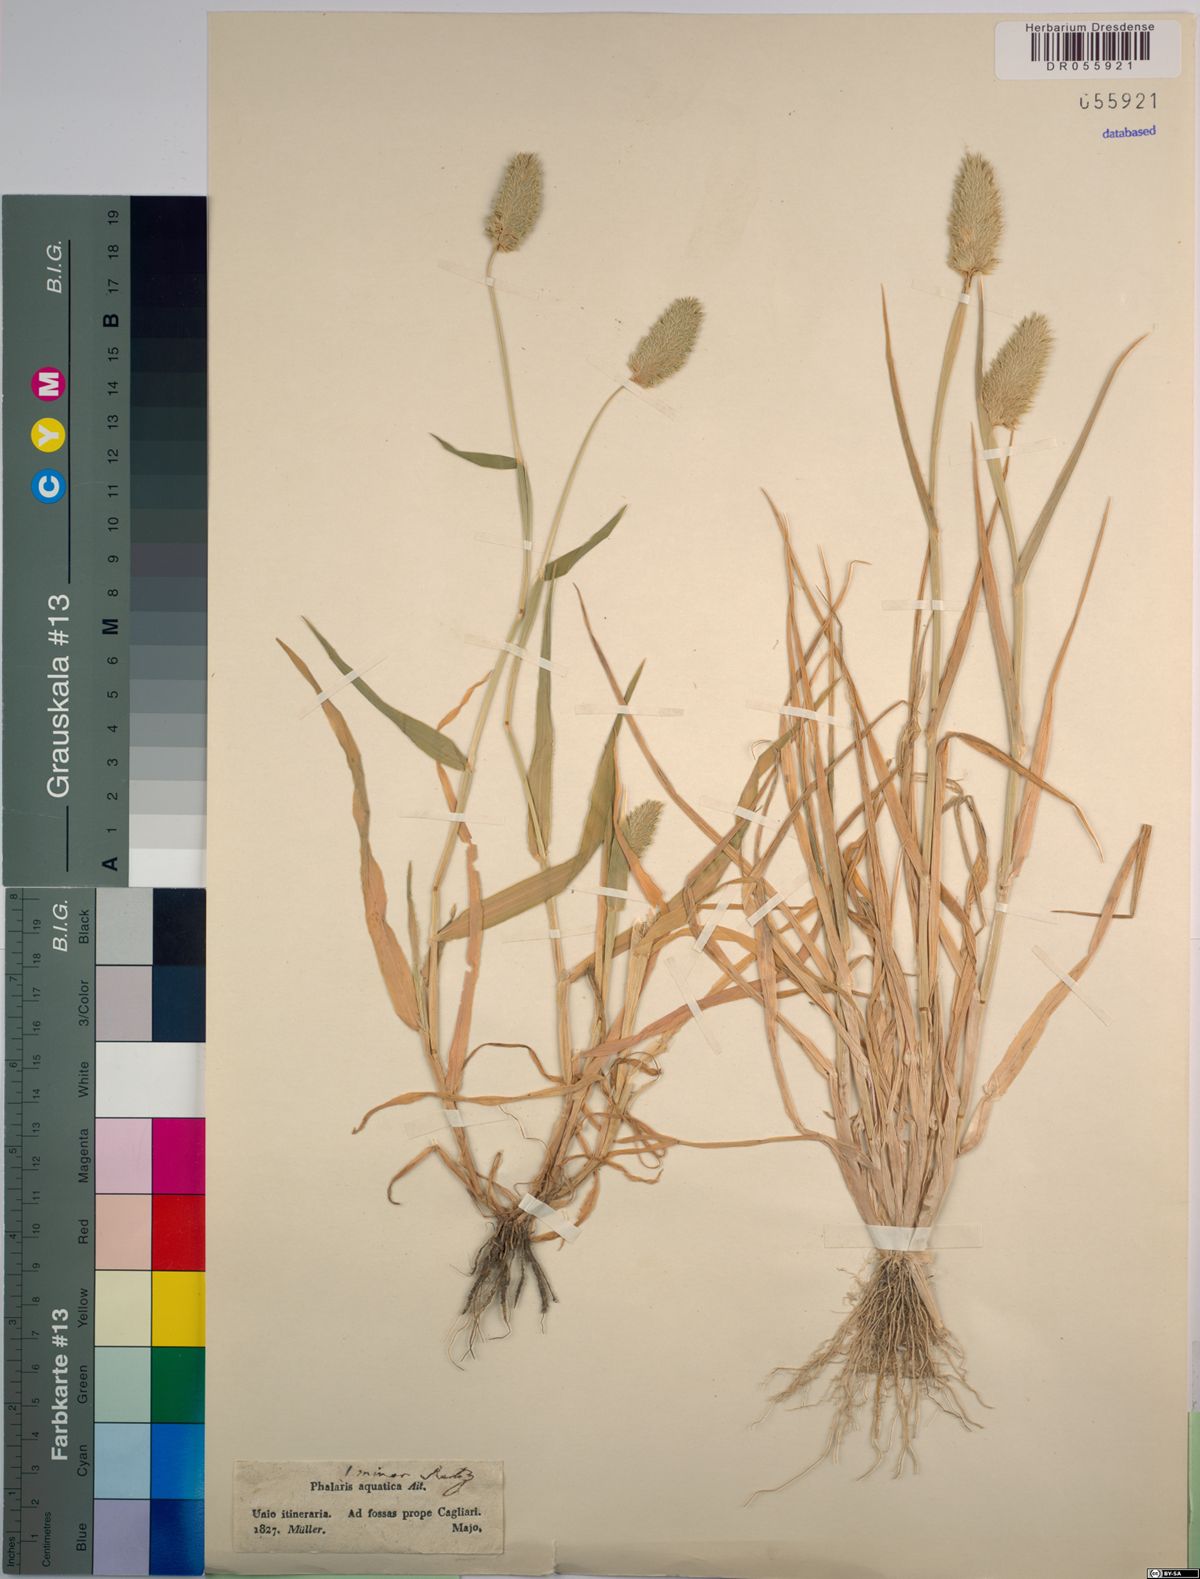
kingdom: Plantae
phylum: Tracheophyta
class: Liliopsida
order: Poales
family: Poaceae
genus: Phalaris
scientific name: Phalaris minor
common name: Littleseed canarygrass
